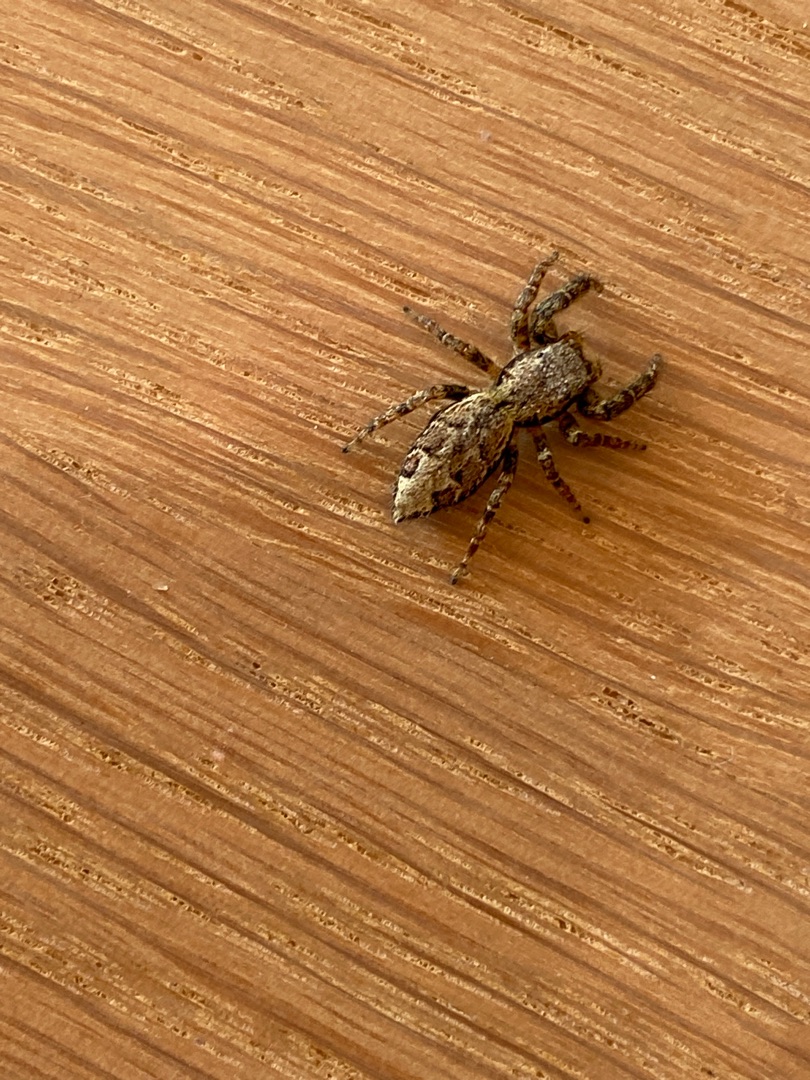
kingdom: Animalia
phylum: Arthropoda
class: Arachnida
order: Araneae
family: Salticidae
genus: Marpissa
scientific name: Marpissa muscosa
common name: Stor springedderkop
